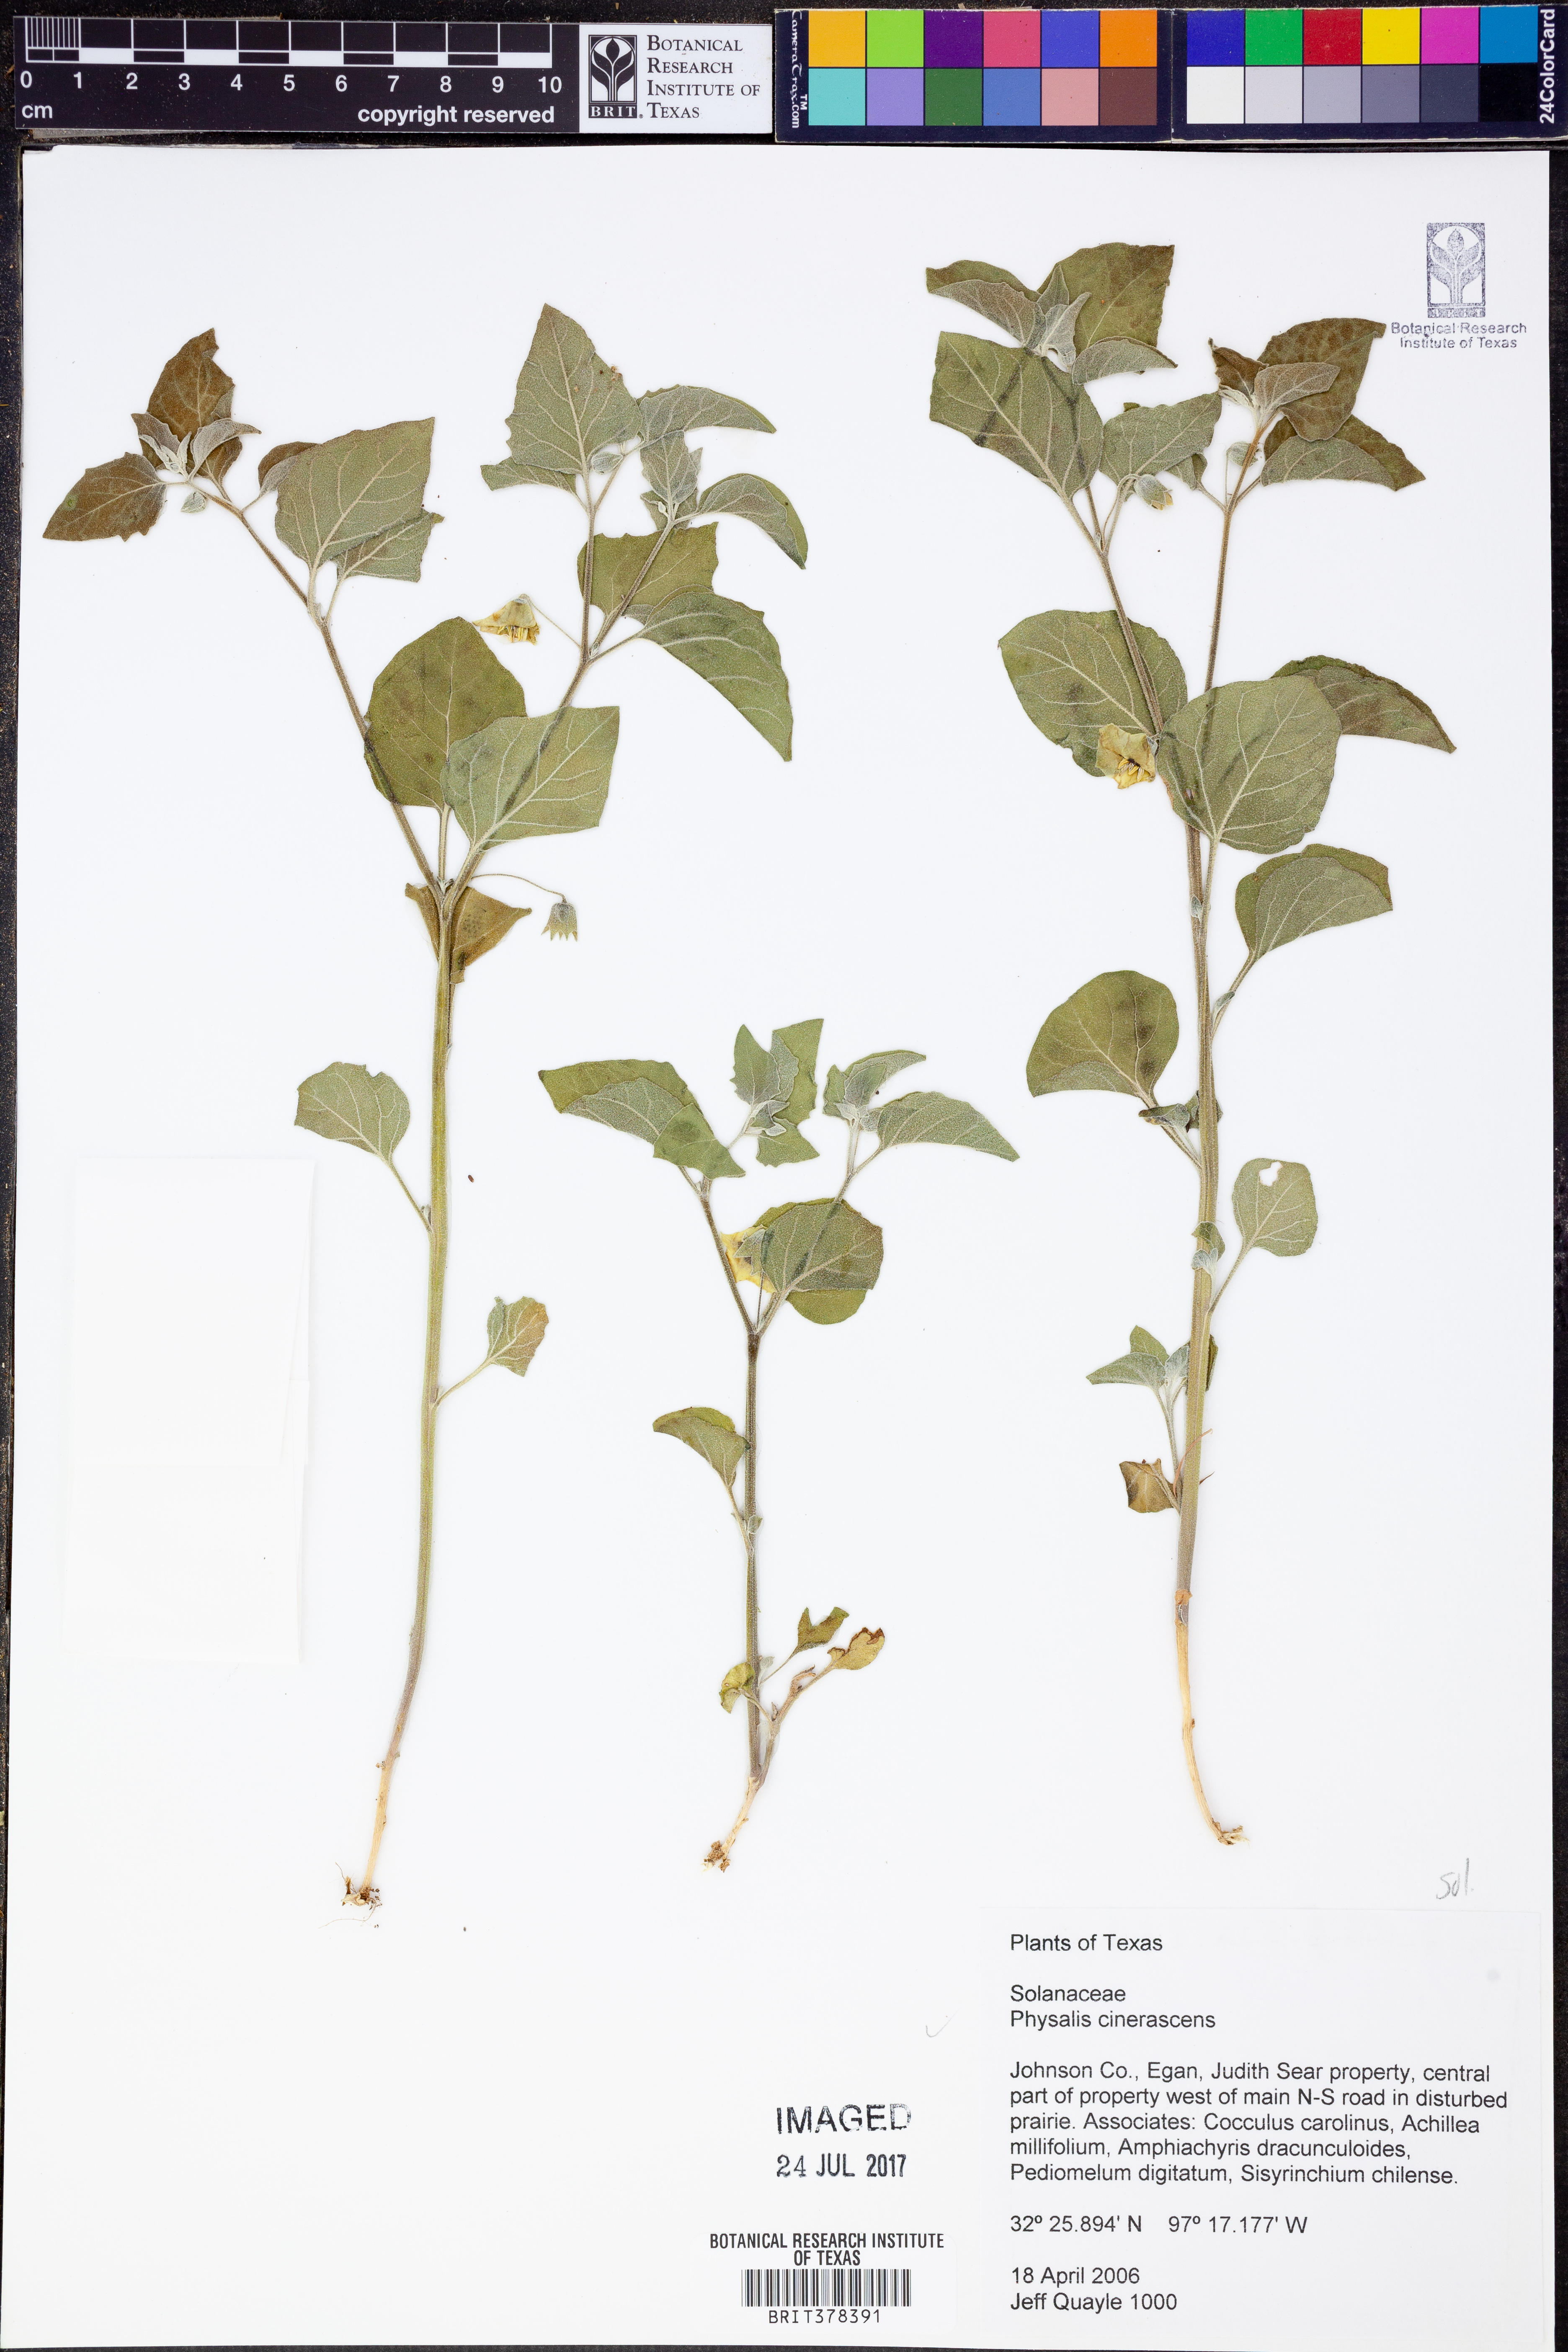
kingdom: Plantae
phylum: Tracheophyta
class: Magnoliopsida
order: Solanales
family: Solanaceae
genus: Physalis
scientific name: Physalis cinerascens
